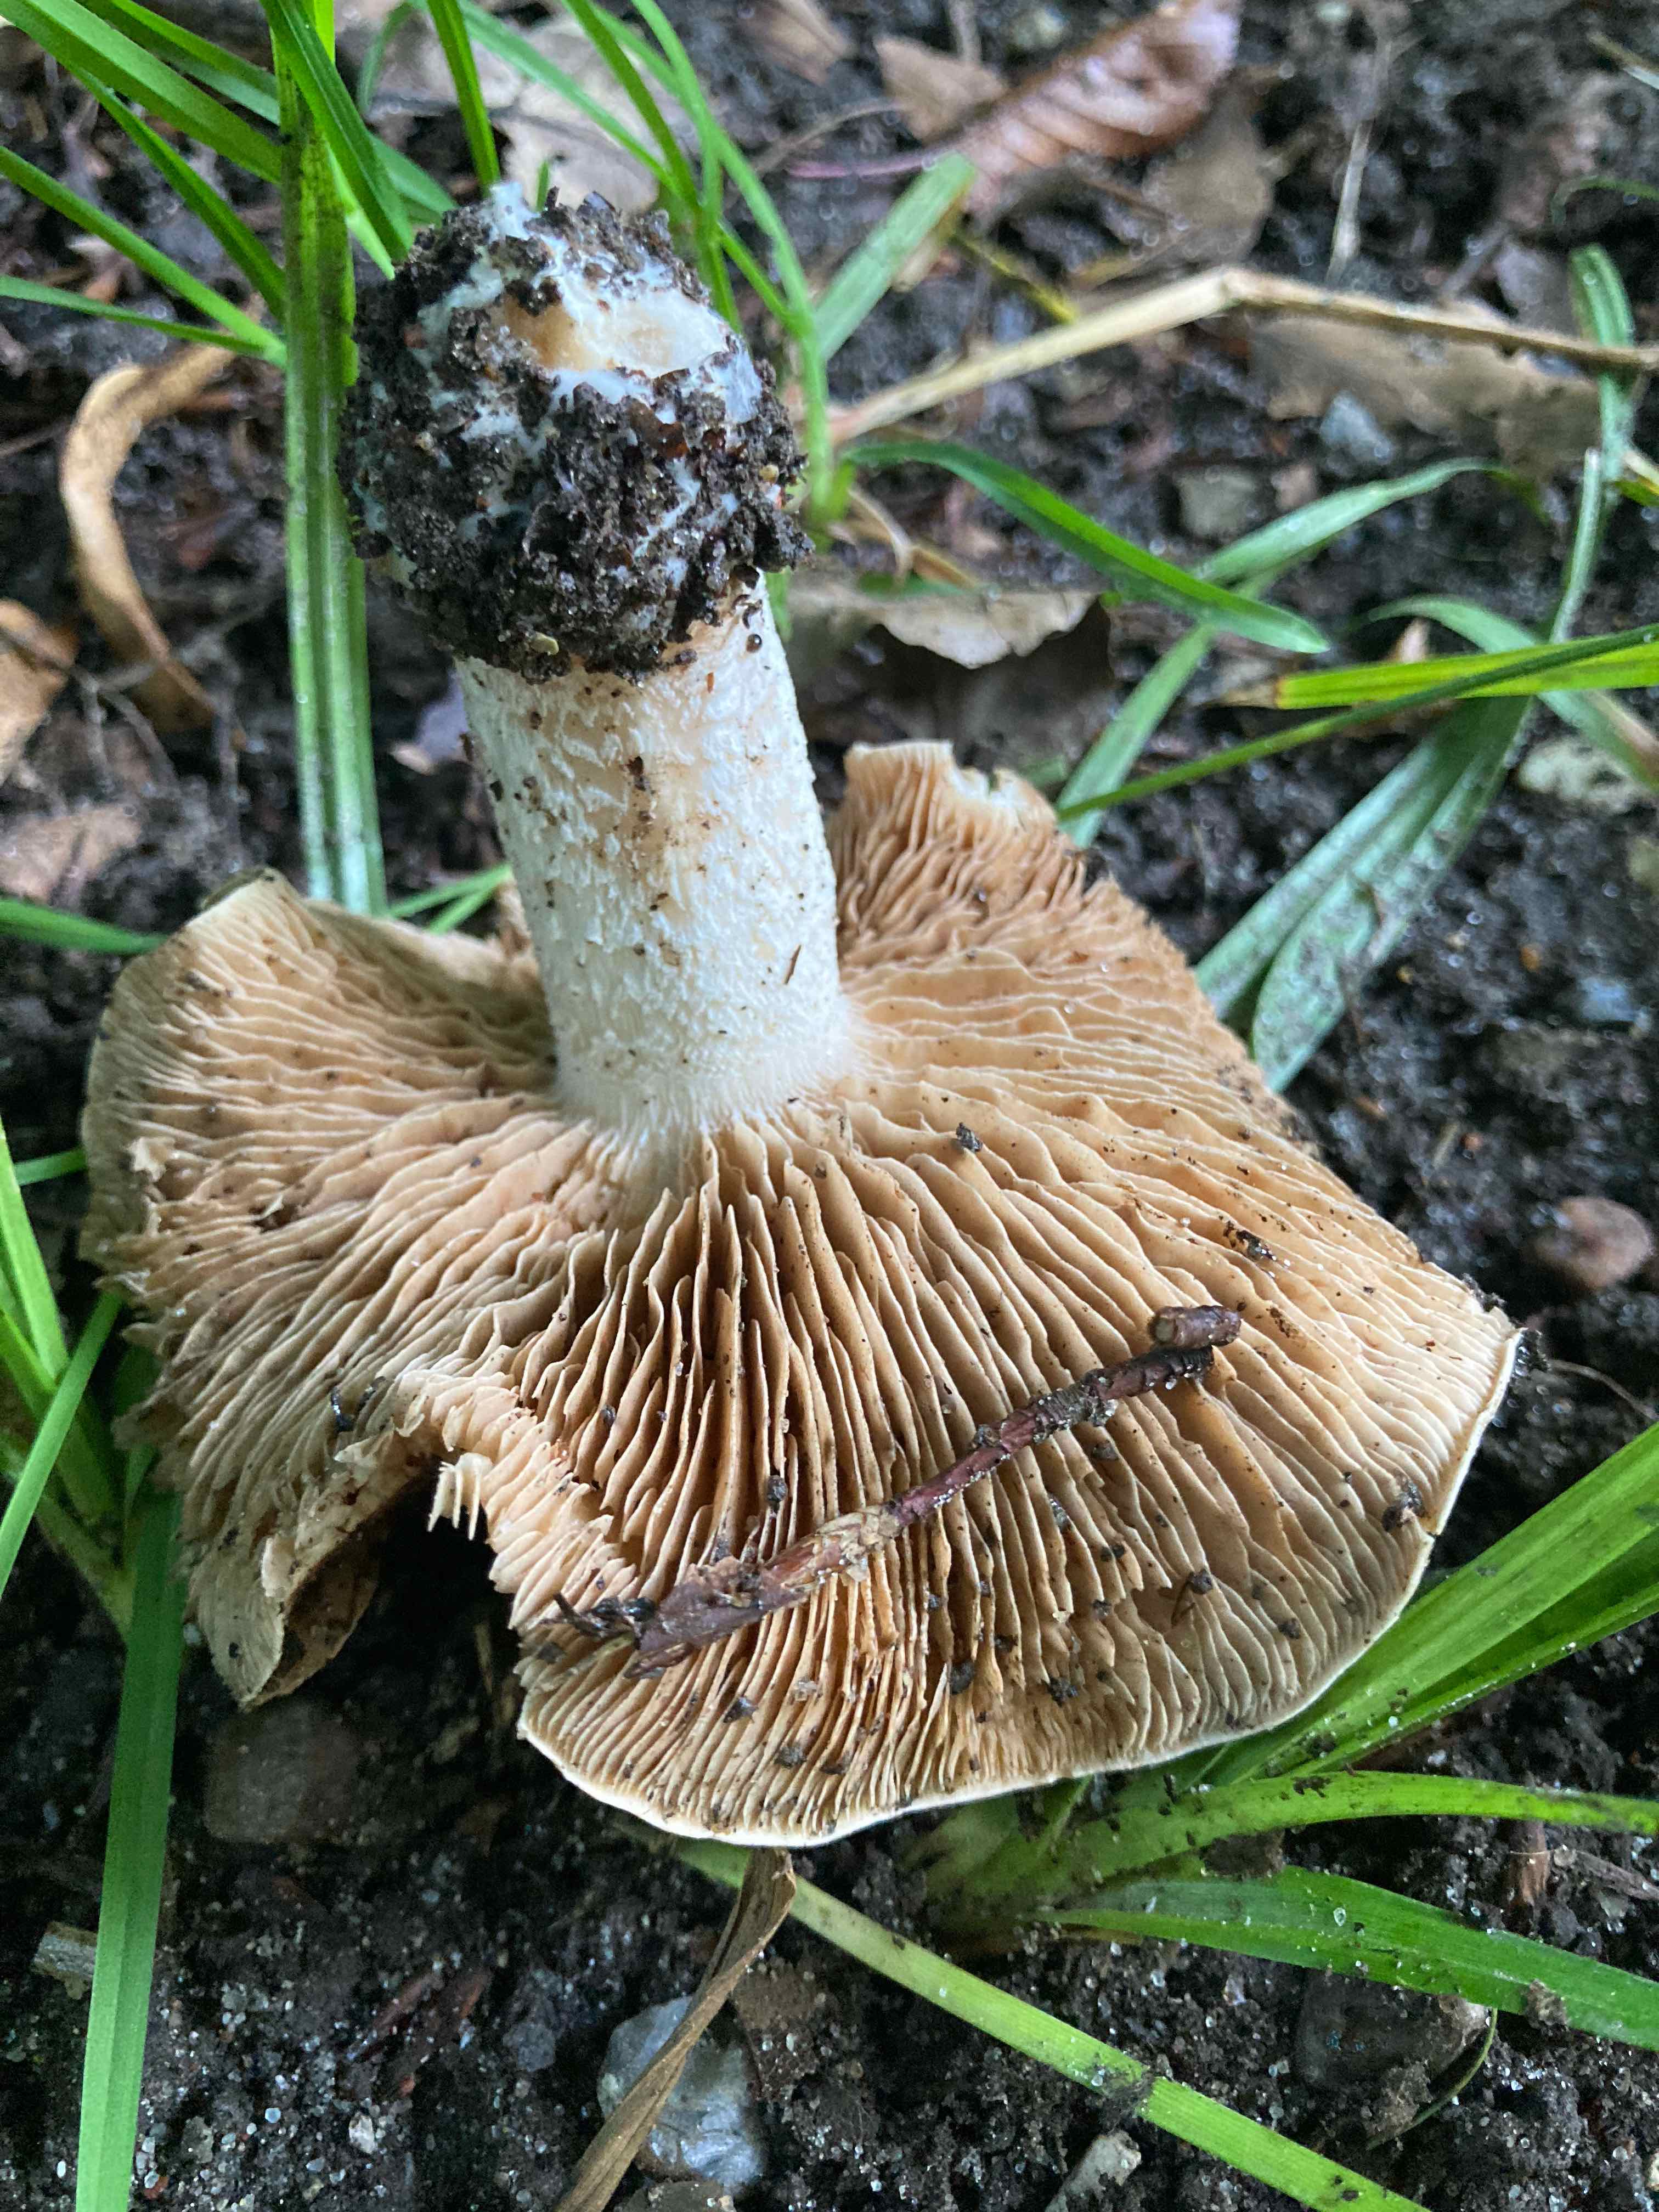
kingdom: Fungi
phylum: Basidiomycota
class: Agaricomycetes
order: Agaricales
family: Hymenogastraceae
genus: Hebeloma
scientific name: Hebeloma sinapizans
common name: ræddike-tåreblad
